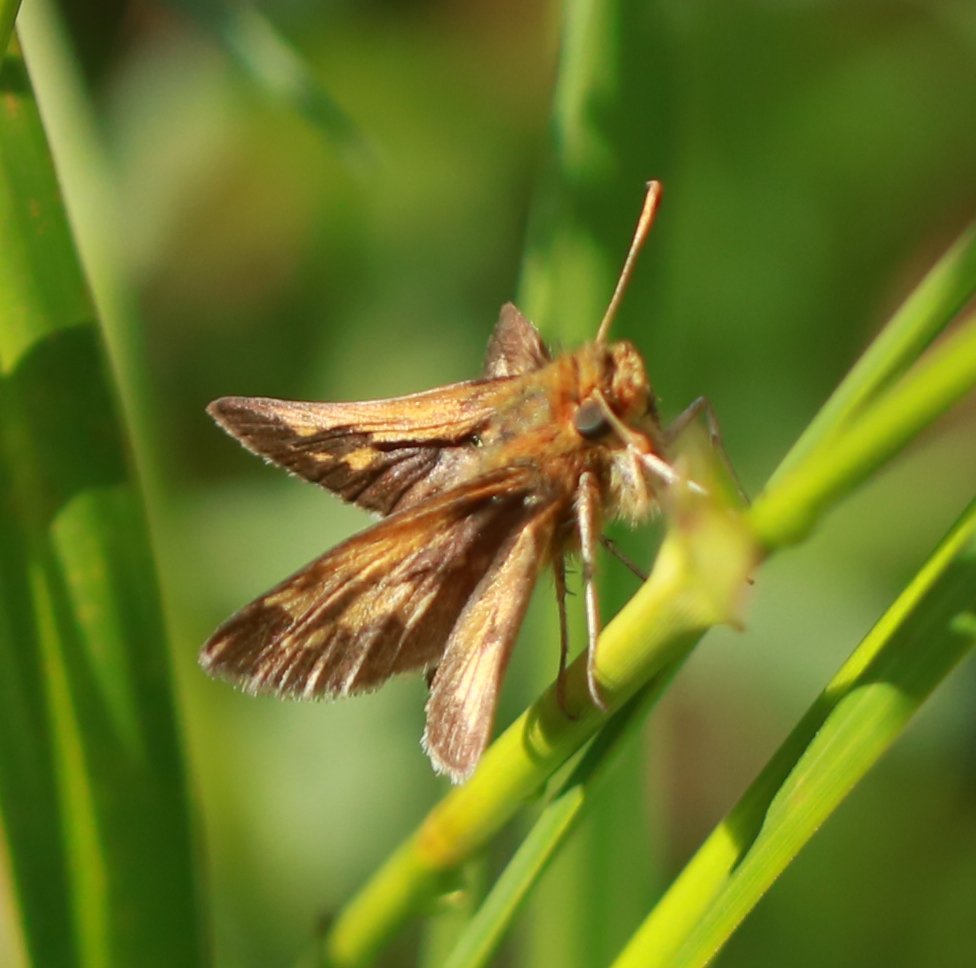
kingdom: Animalia
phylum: Arthropoda
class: Insecta
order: Lepidoptera
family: Hesperiidae
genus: Polites
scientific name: Polites coras
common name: Peck's Skipper
